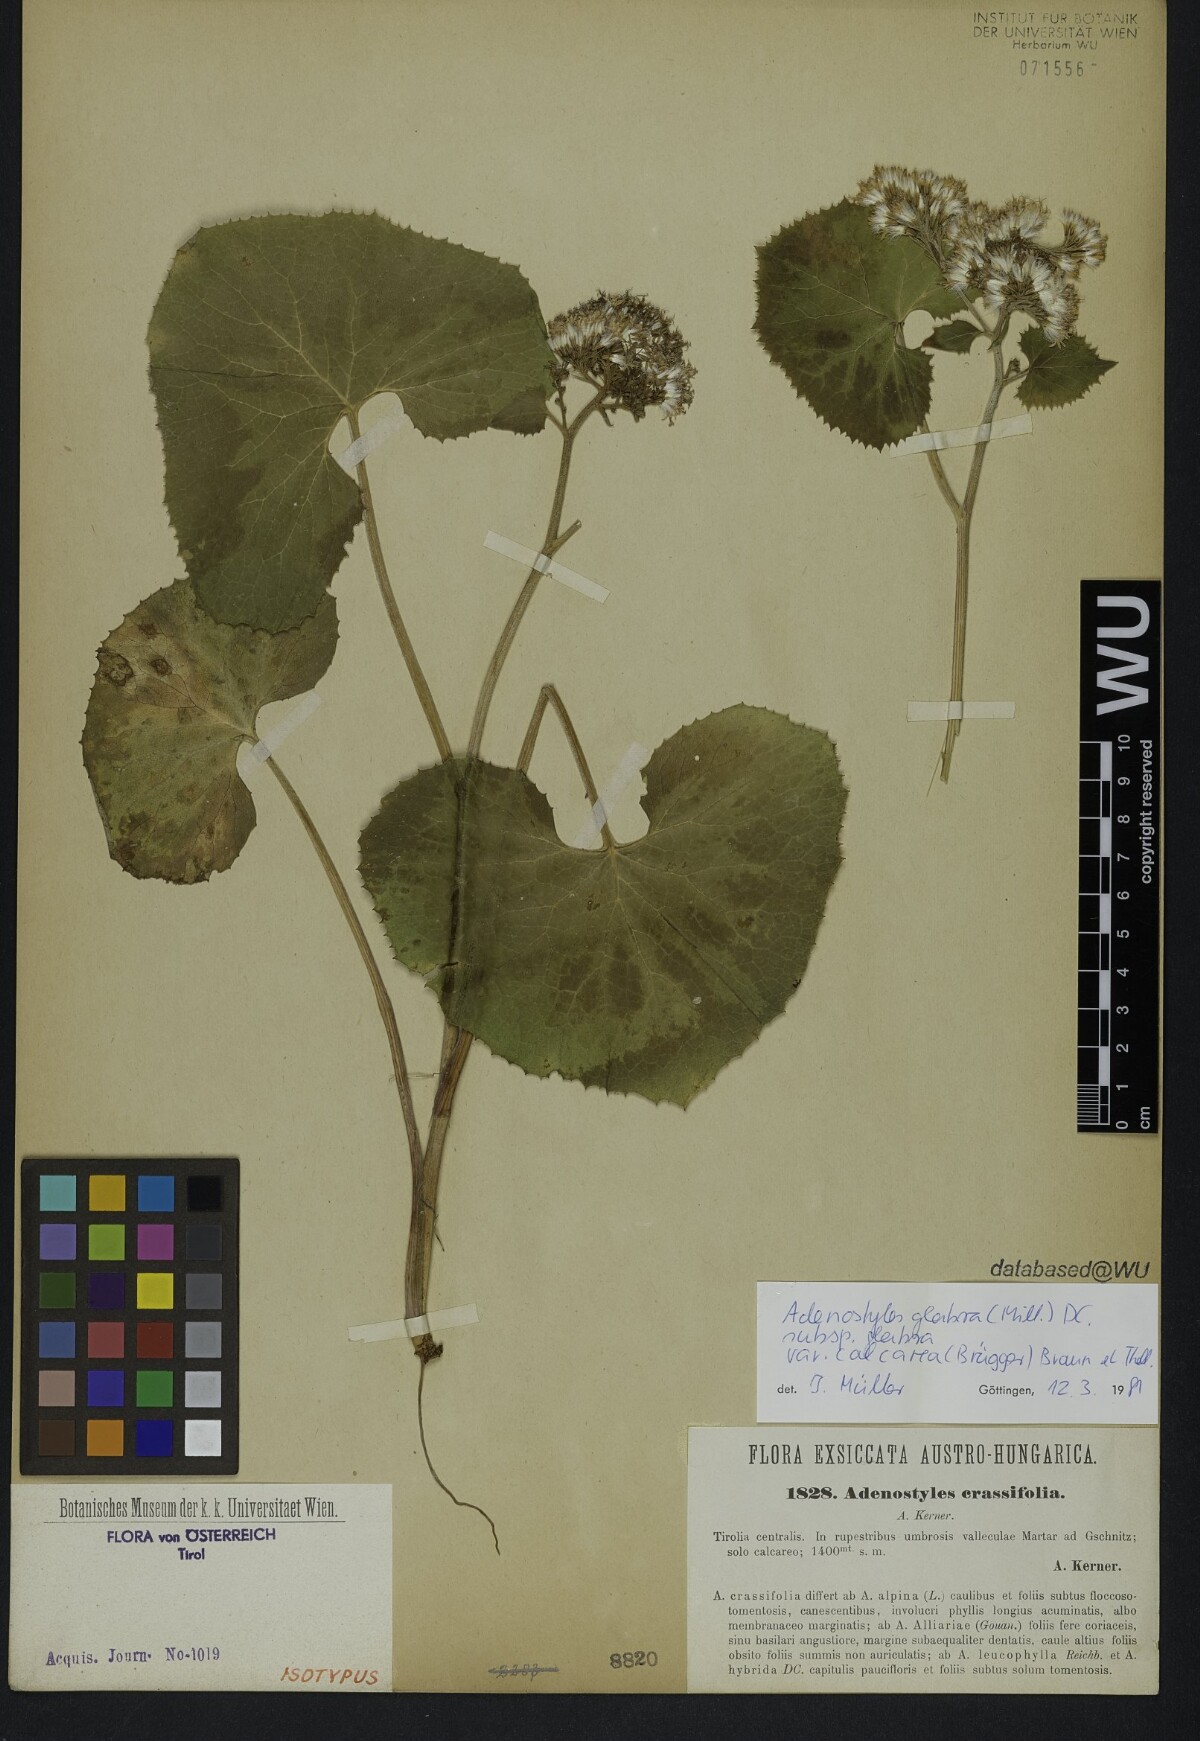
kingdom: Plantae
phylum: Tracheophyta
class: Magnoliopsida
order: Asterales
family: Asteraceae
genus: Adenostyles
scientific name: Adenostyles alpina
